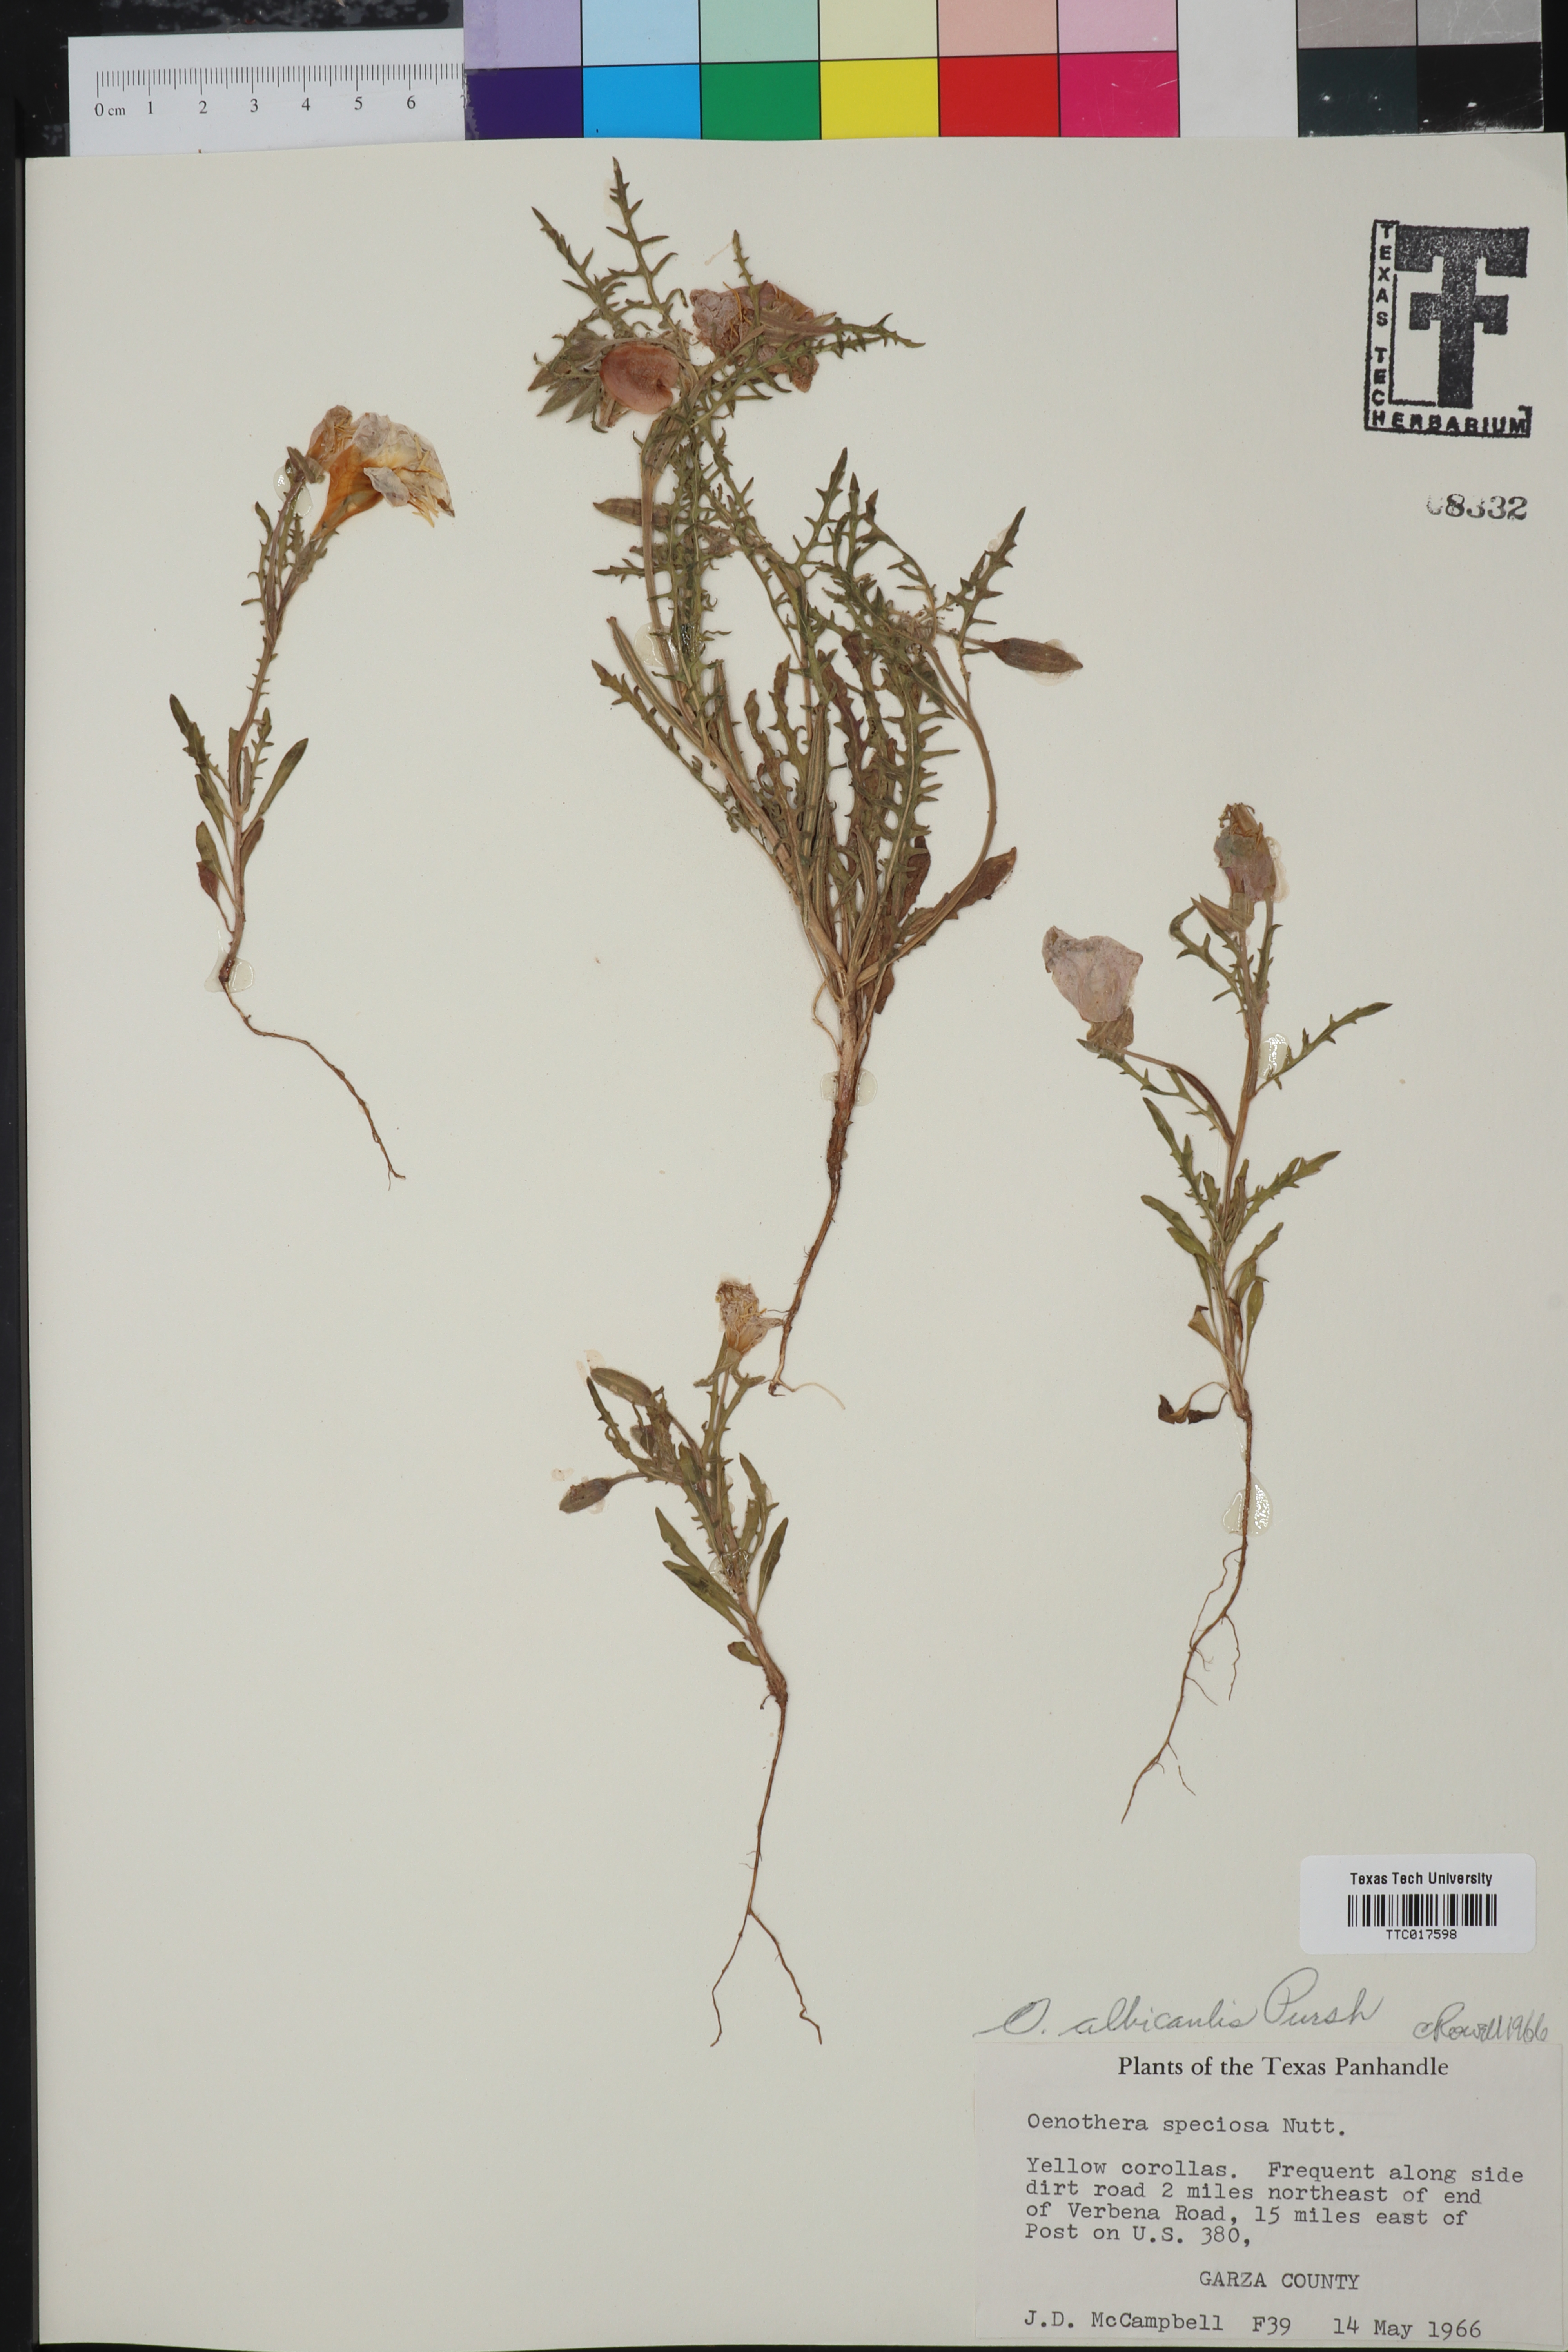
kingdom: Plantae
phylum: Tracheophyta
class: Magnoliopsida
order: Myrtales
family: Onagraceae
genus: Oenothera
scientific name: Oenothera albicaulis
